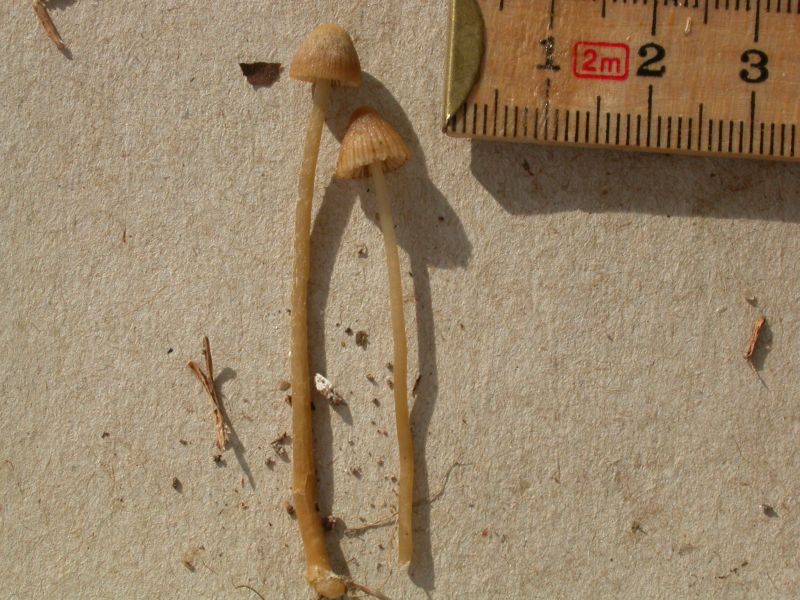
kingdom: Fungi
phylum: Basidiomycota
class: Agaricomycetes
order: Agaricales
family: Hymenogastraceae
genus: Galerina
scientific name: Galerina cephalotricha
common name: hede-hjelmhat
